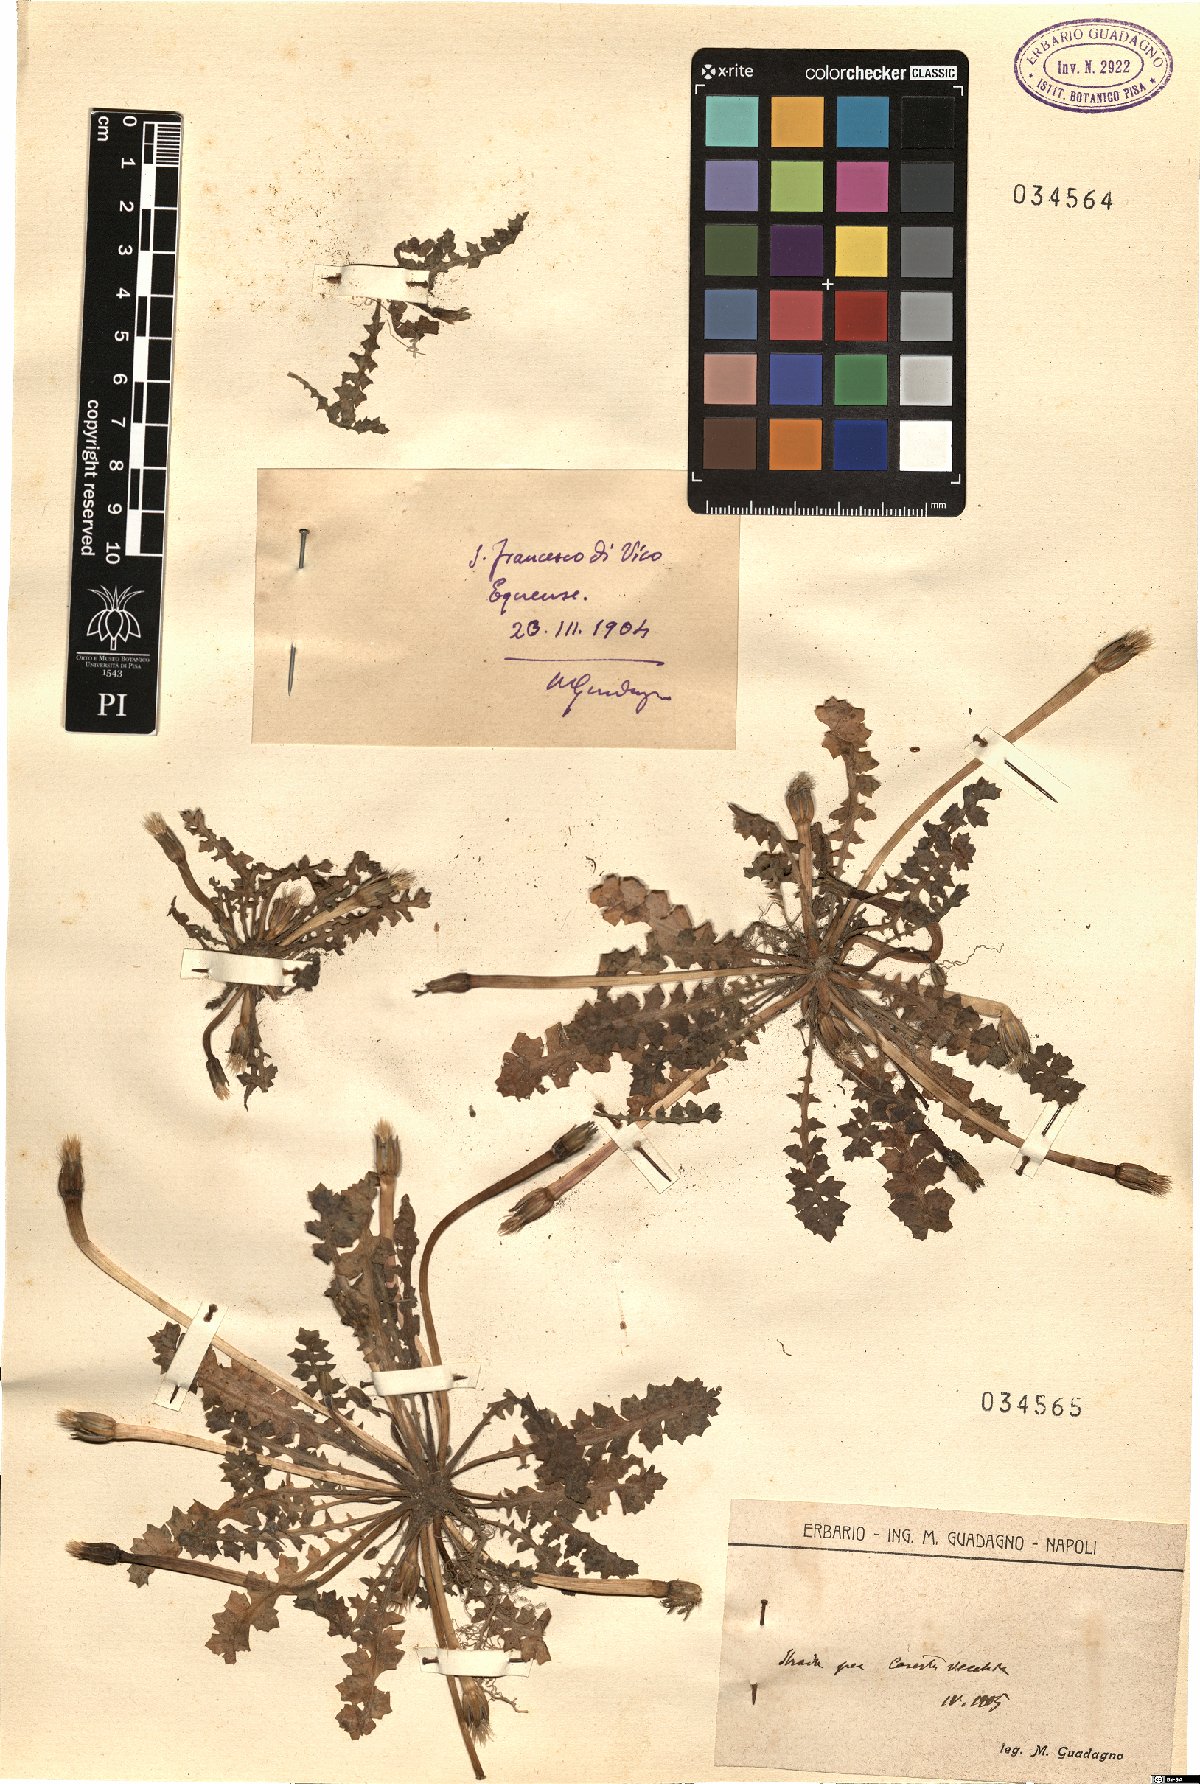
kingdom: Plantae
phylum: Tracheophyta
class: Magnoliopsida
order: Asterales
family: Asteraceae
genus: Hyoseris
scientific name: Hyoseris
